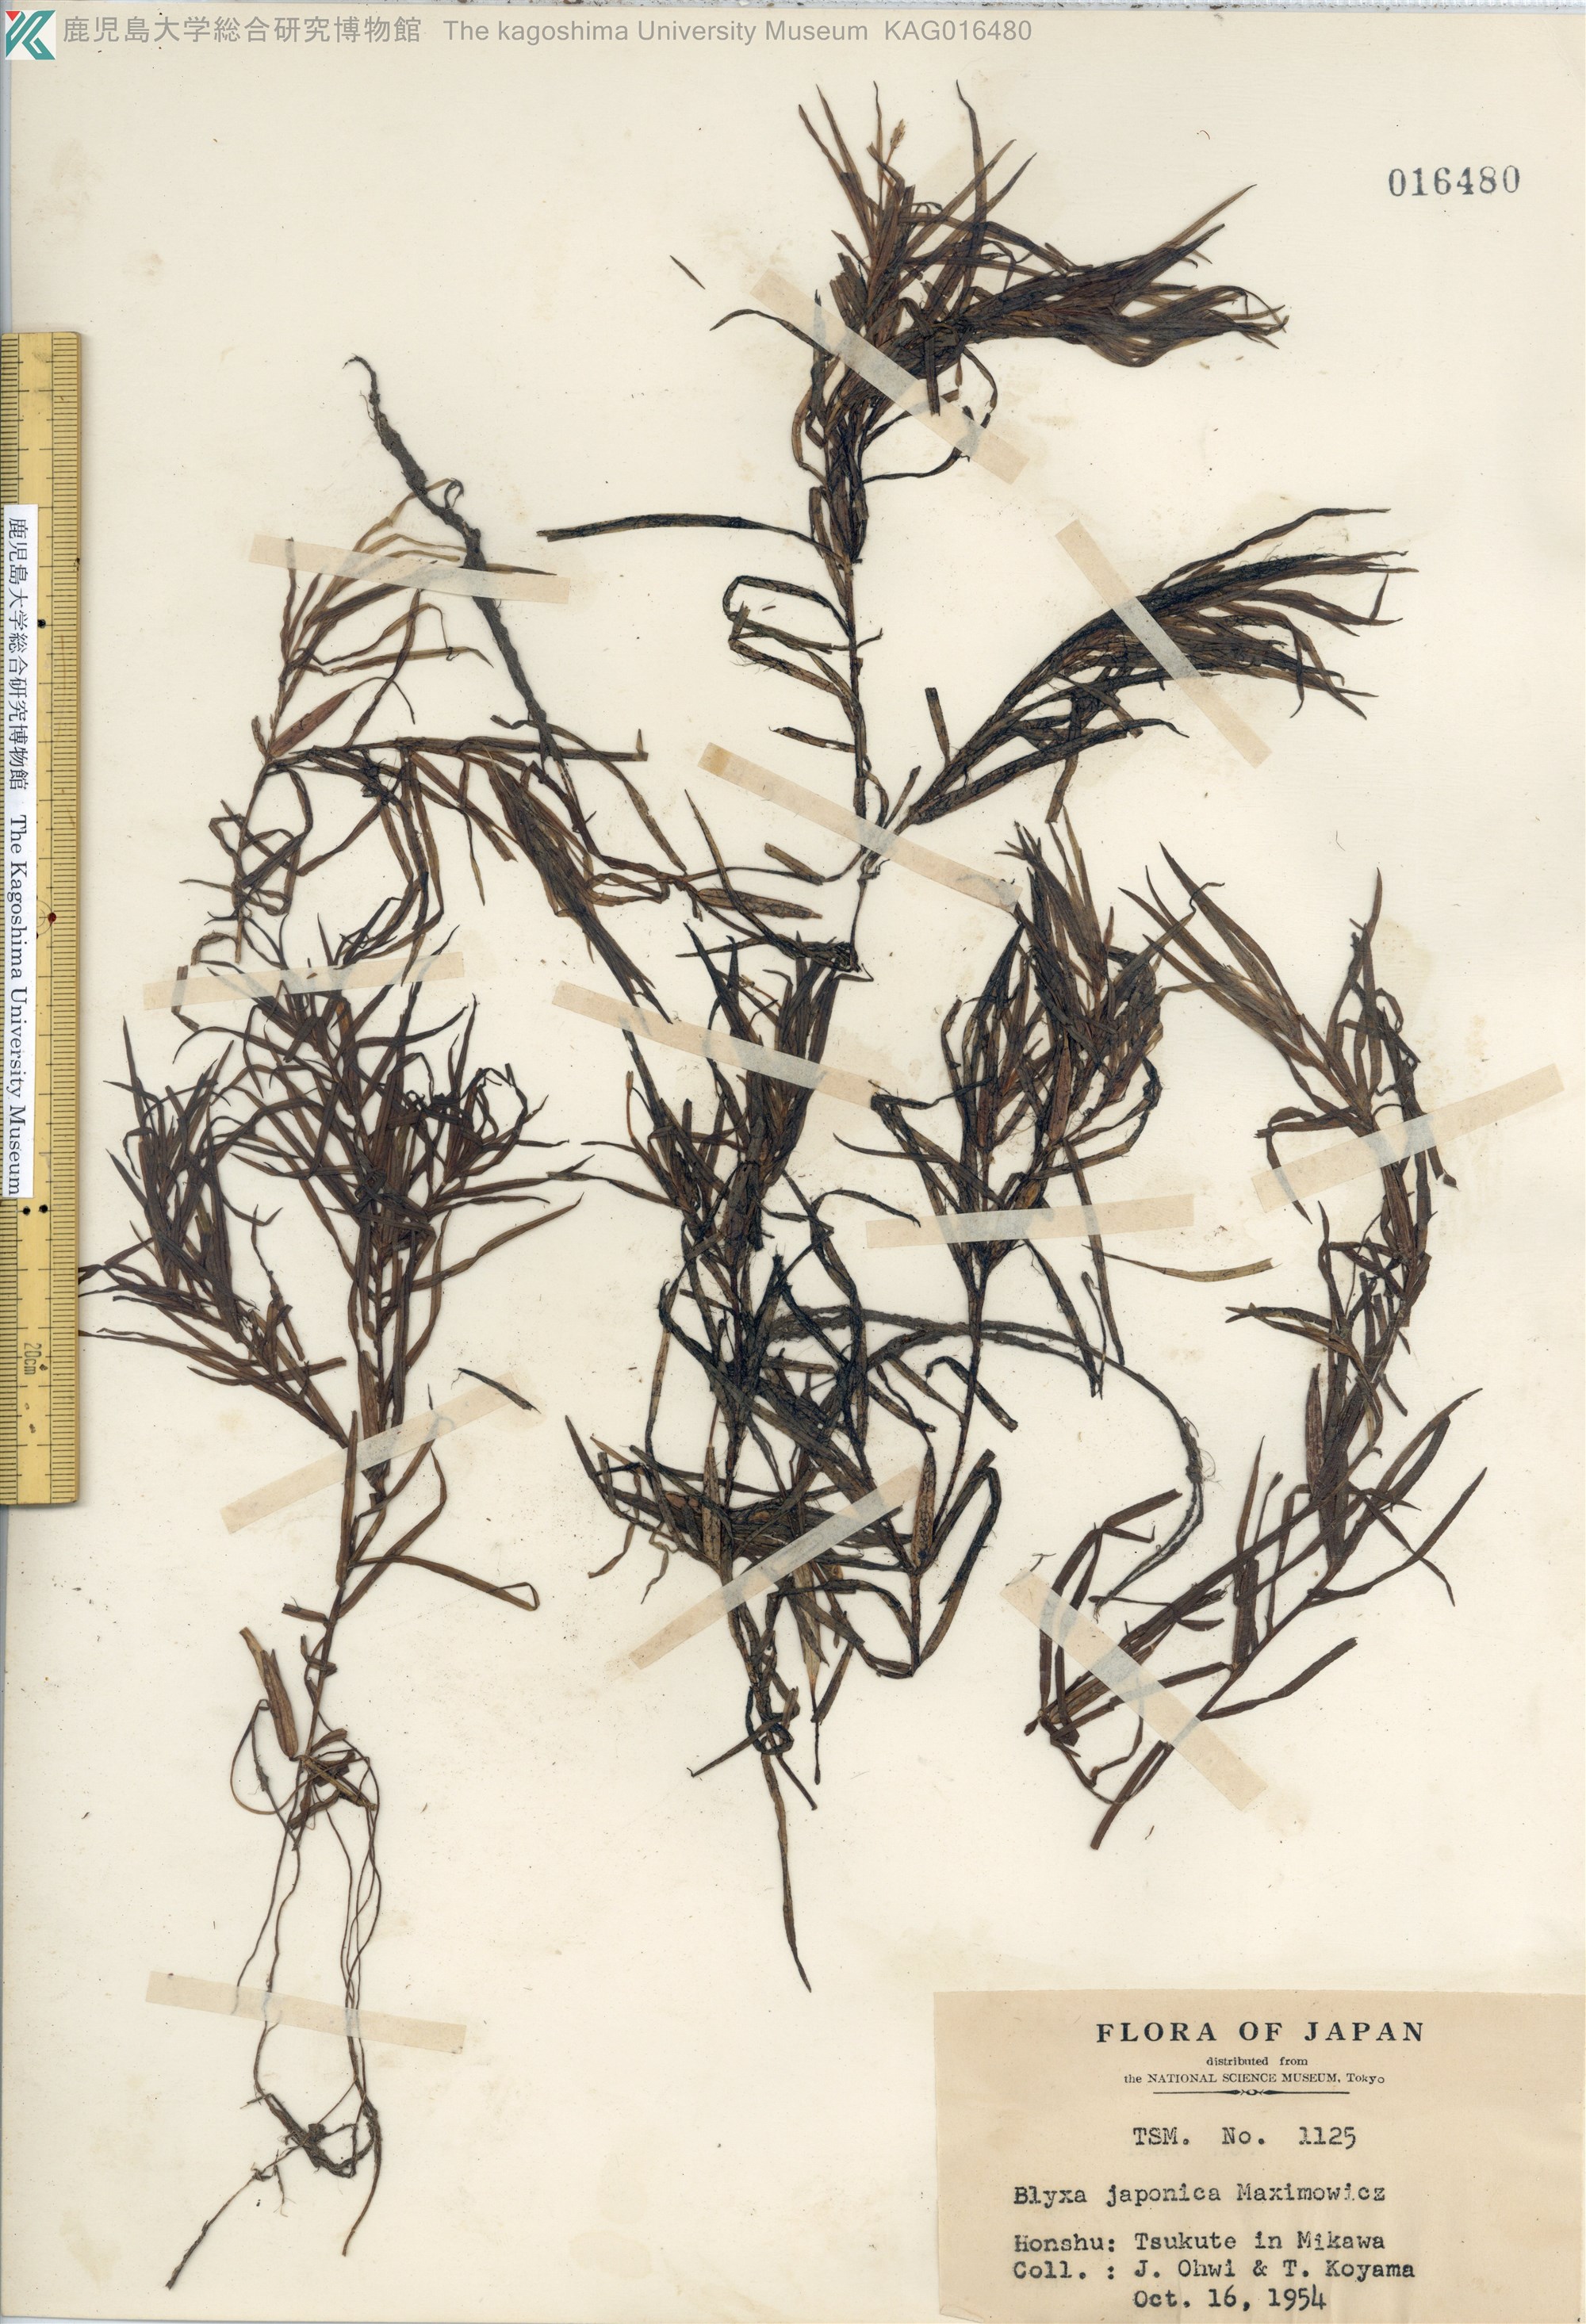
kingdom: Plantae
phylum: Tracheophyta
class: Liliopsida
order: Alismatales
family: Hydrocharitaceae
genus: Blyxa
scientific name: Blyxa japonica
